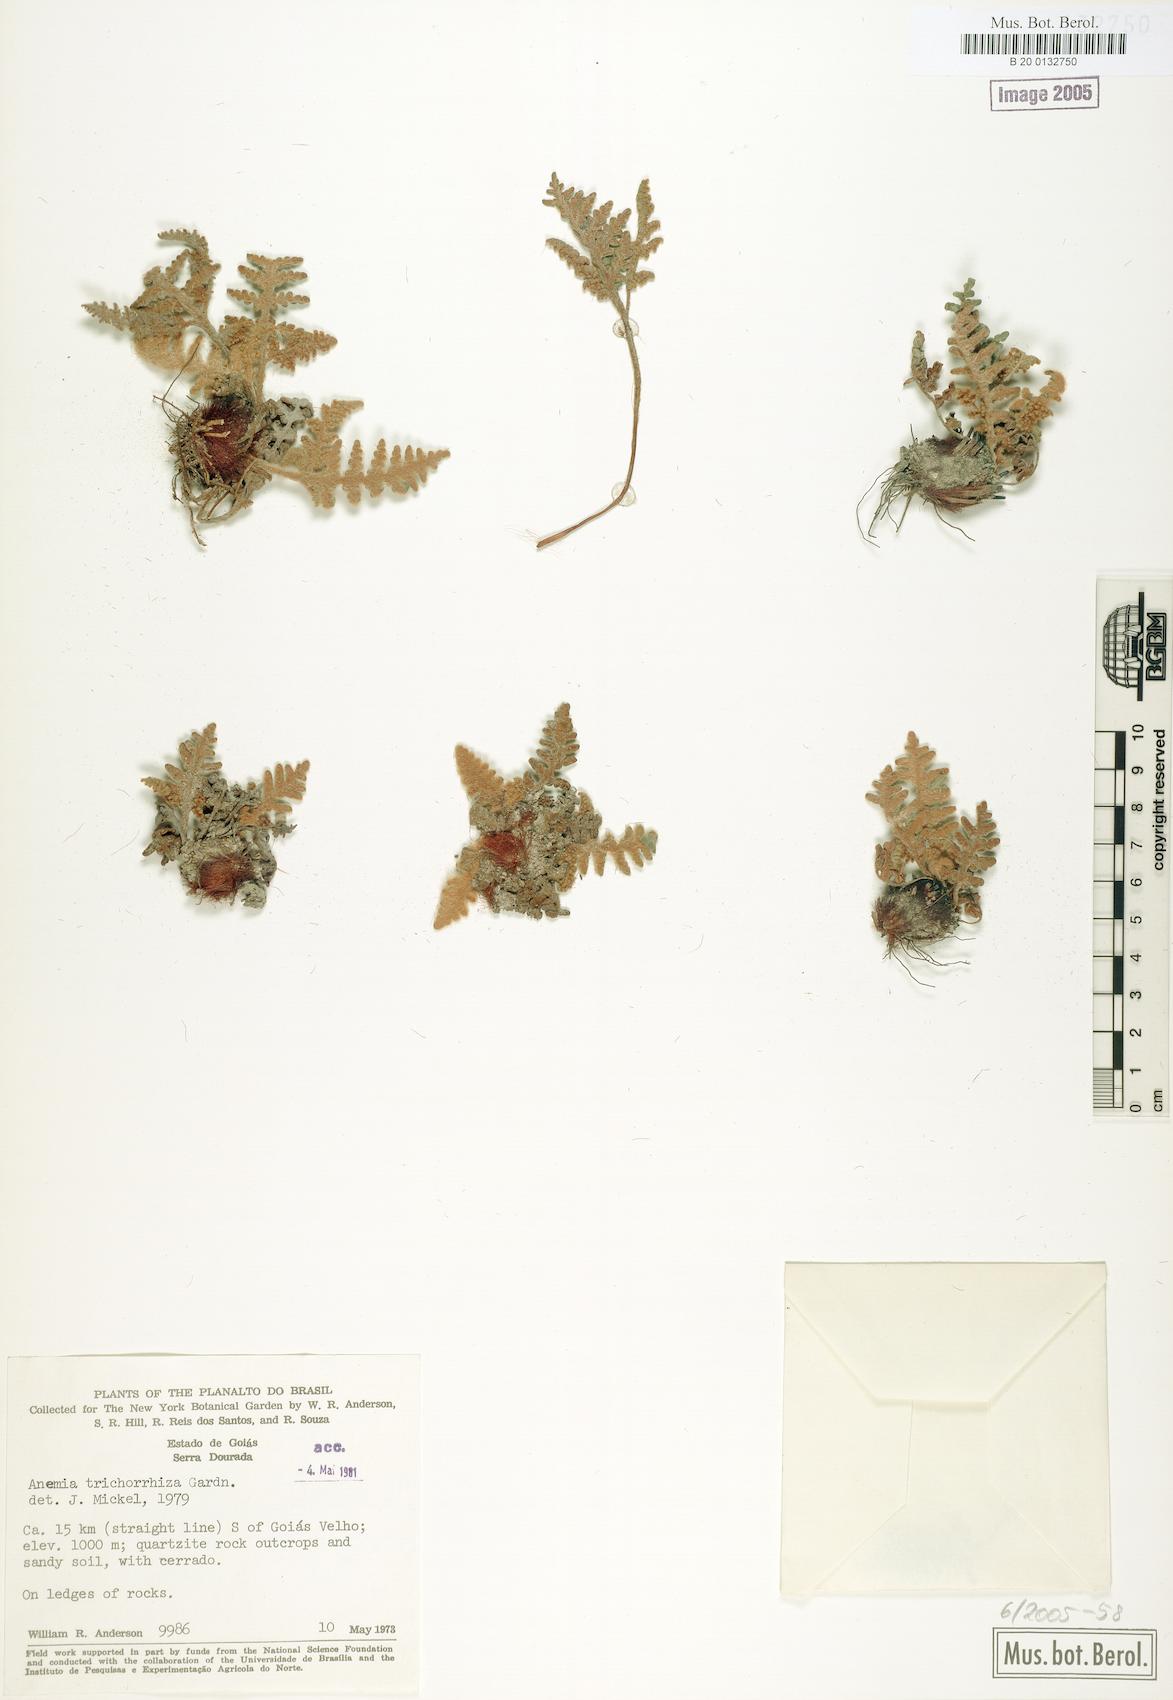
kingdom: Plantae
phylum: Tracheophyta
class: Polypodiopsida
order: Schizaeales
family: Anemiaceae
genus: Anemia
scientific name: Anemia trichorhiza
